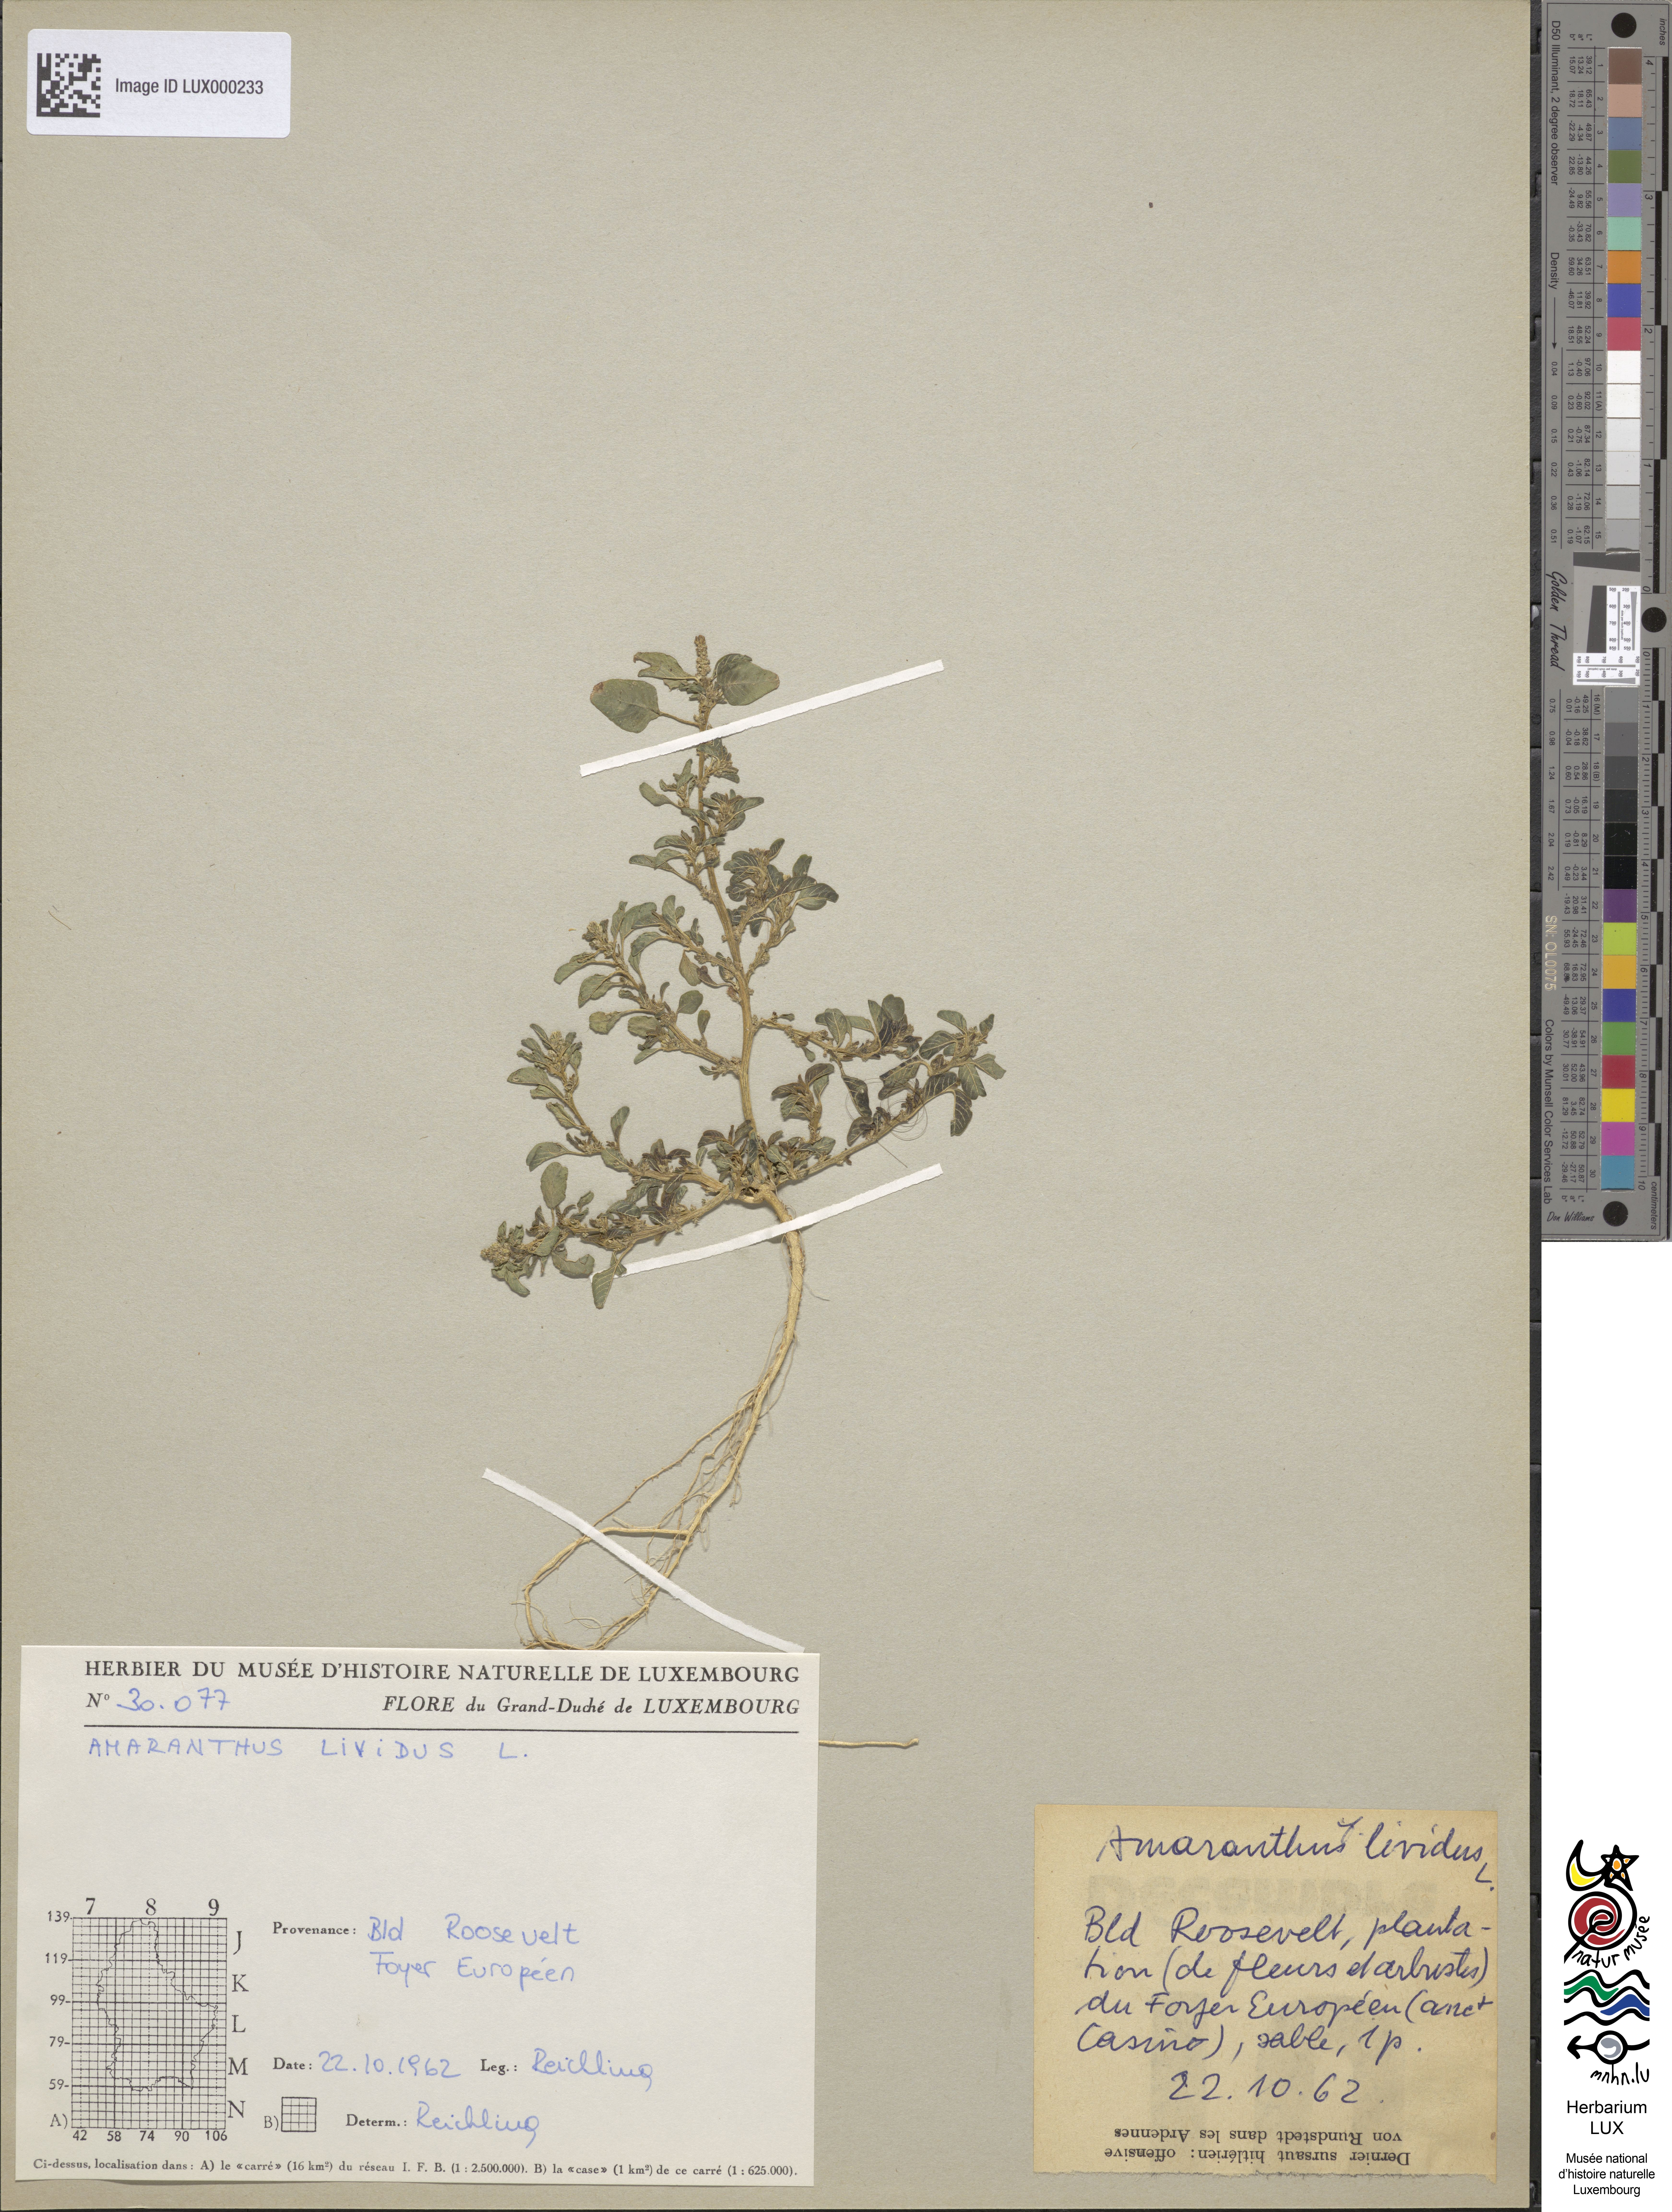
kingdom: Plantae
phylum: Tracheophyta
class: Magnoliopsida
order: Caryophyllales
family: Amaranthaceae
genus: Amaranthus
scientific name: Amaranthus blitum
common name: Purple amaranth
